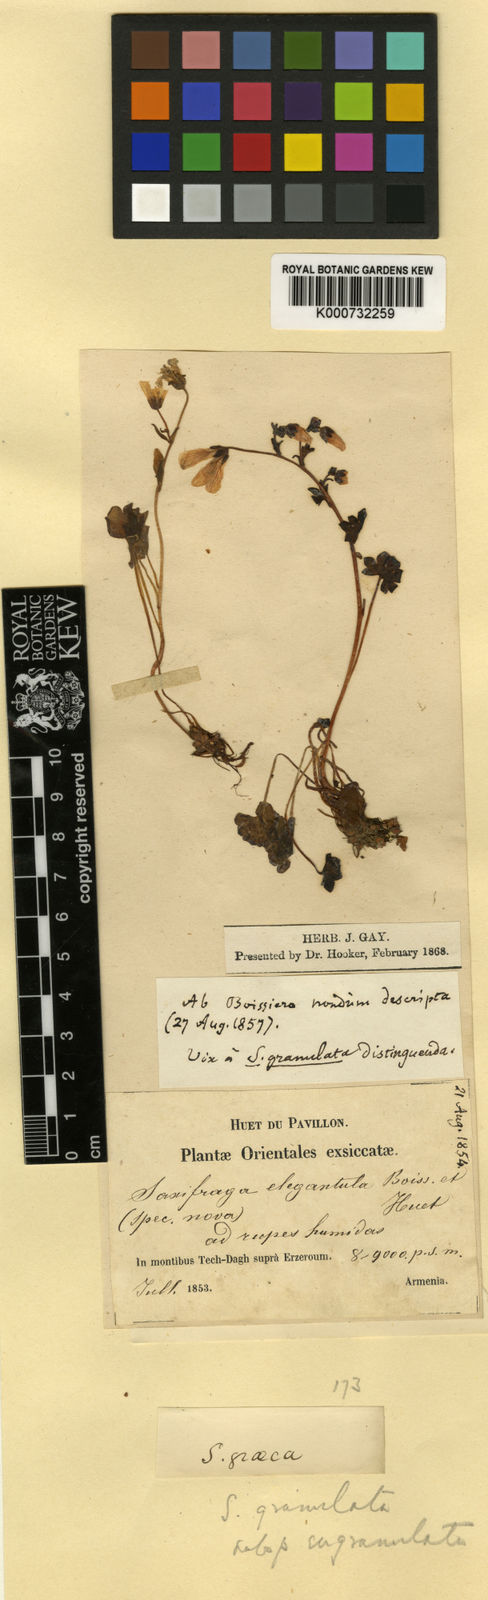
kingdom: Plantae
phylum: Tracheophyta
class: Magnoliopsida
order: Saxifragales
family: Saxifragaceae
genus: Saxifraga
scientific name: Saxifraga granulata
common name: Meadow saxifrage
